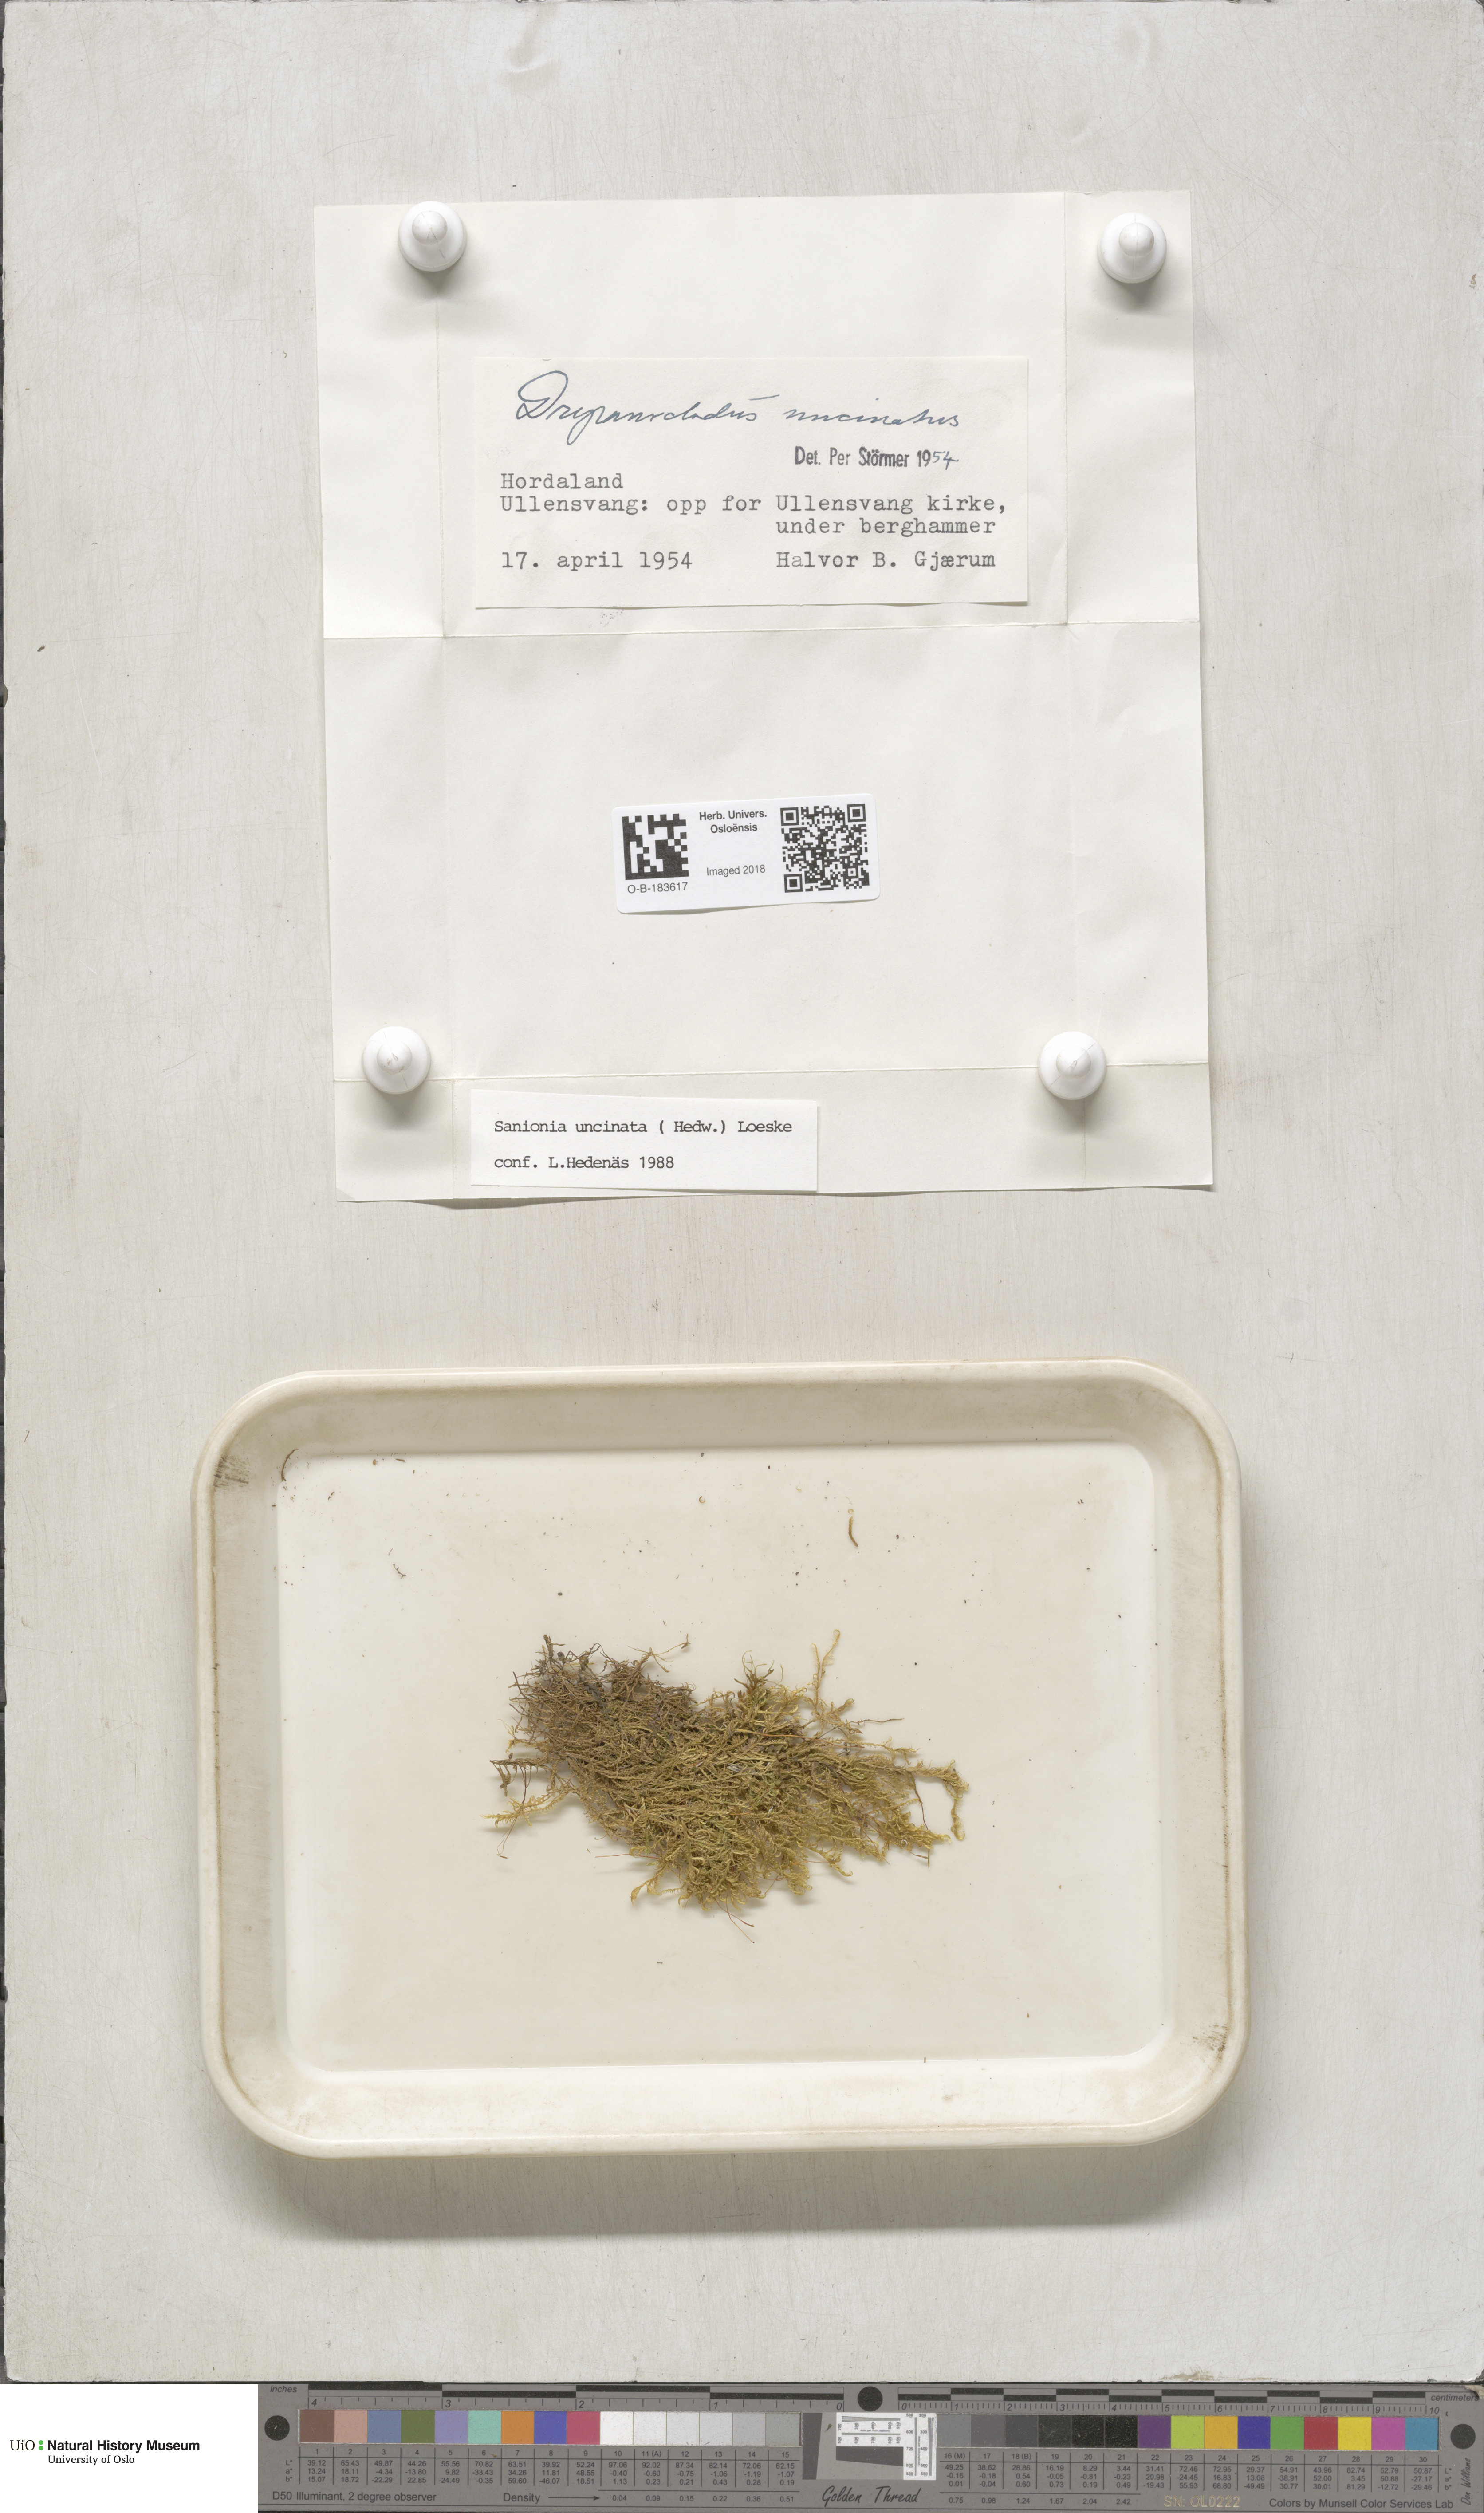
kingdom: Plantae
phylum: Bryophyta
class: Bryopsida
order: Hypnales
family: Scorpidiaceae
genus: Sanionia
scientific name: Sanionia uncinata
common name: Sickle moss
